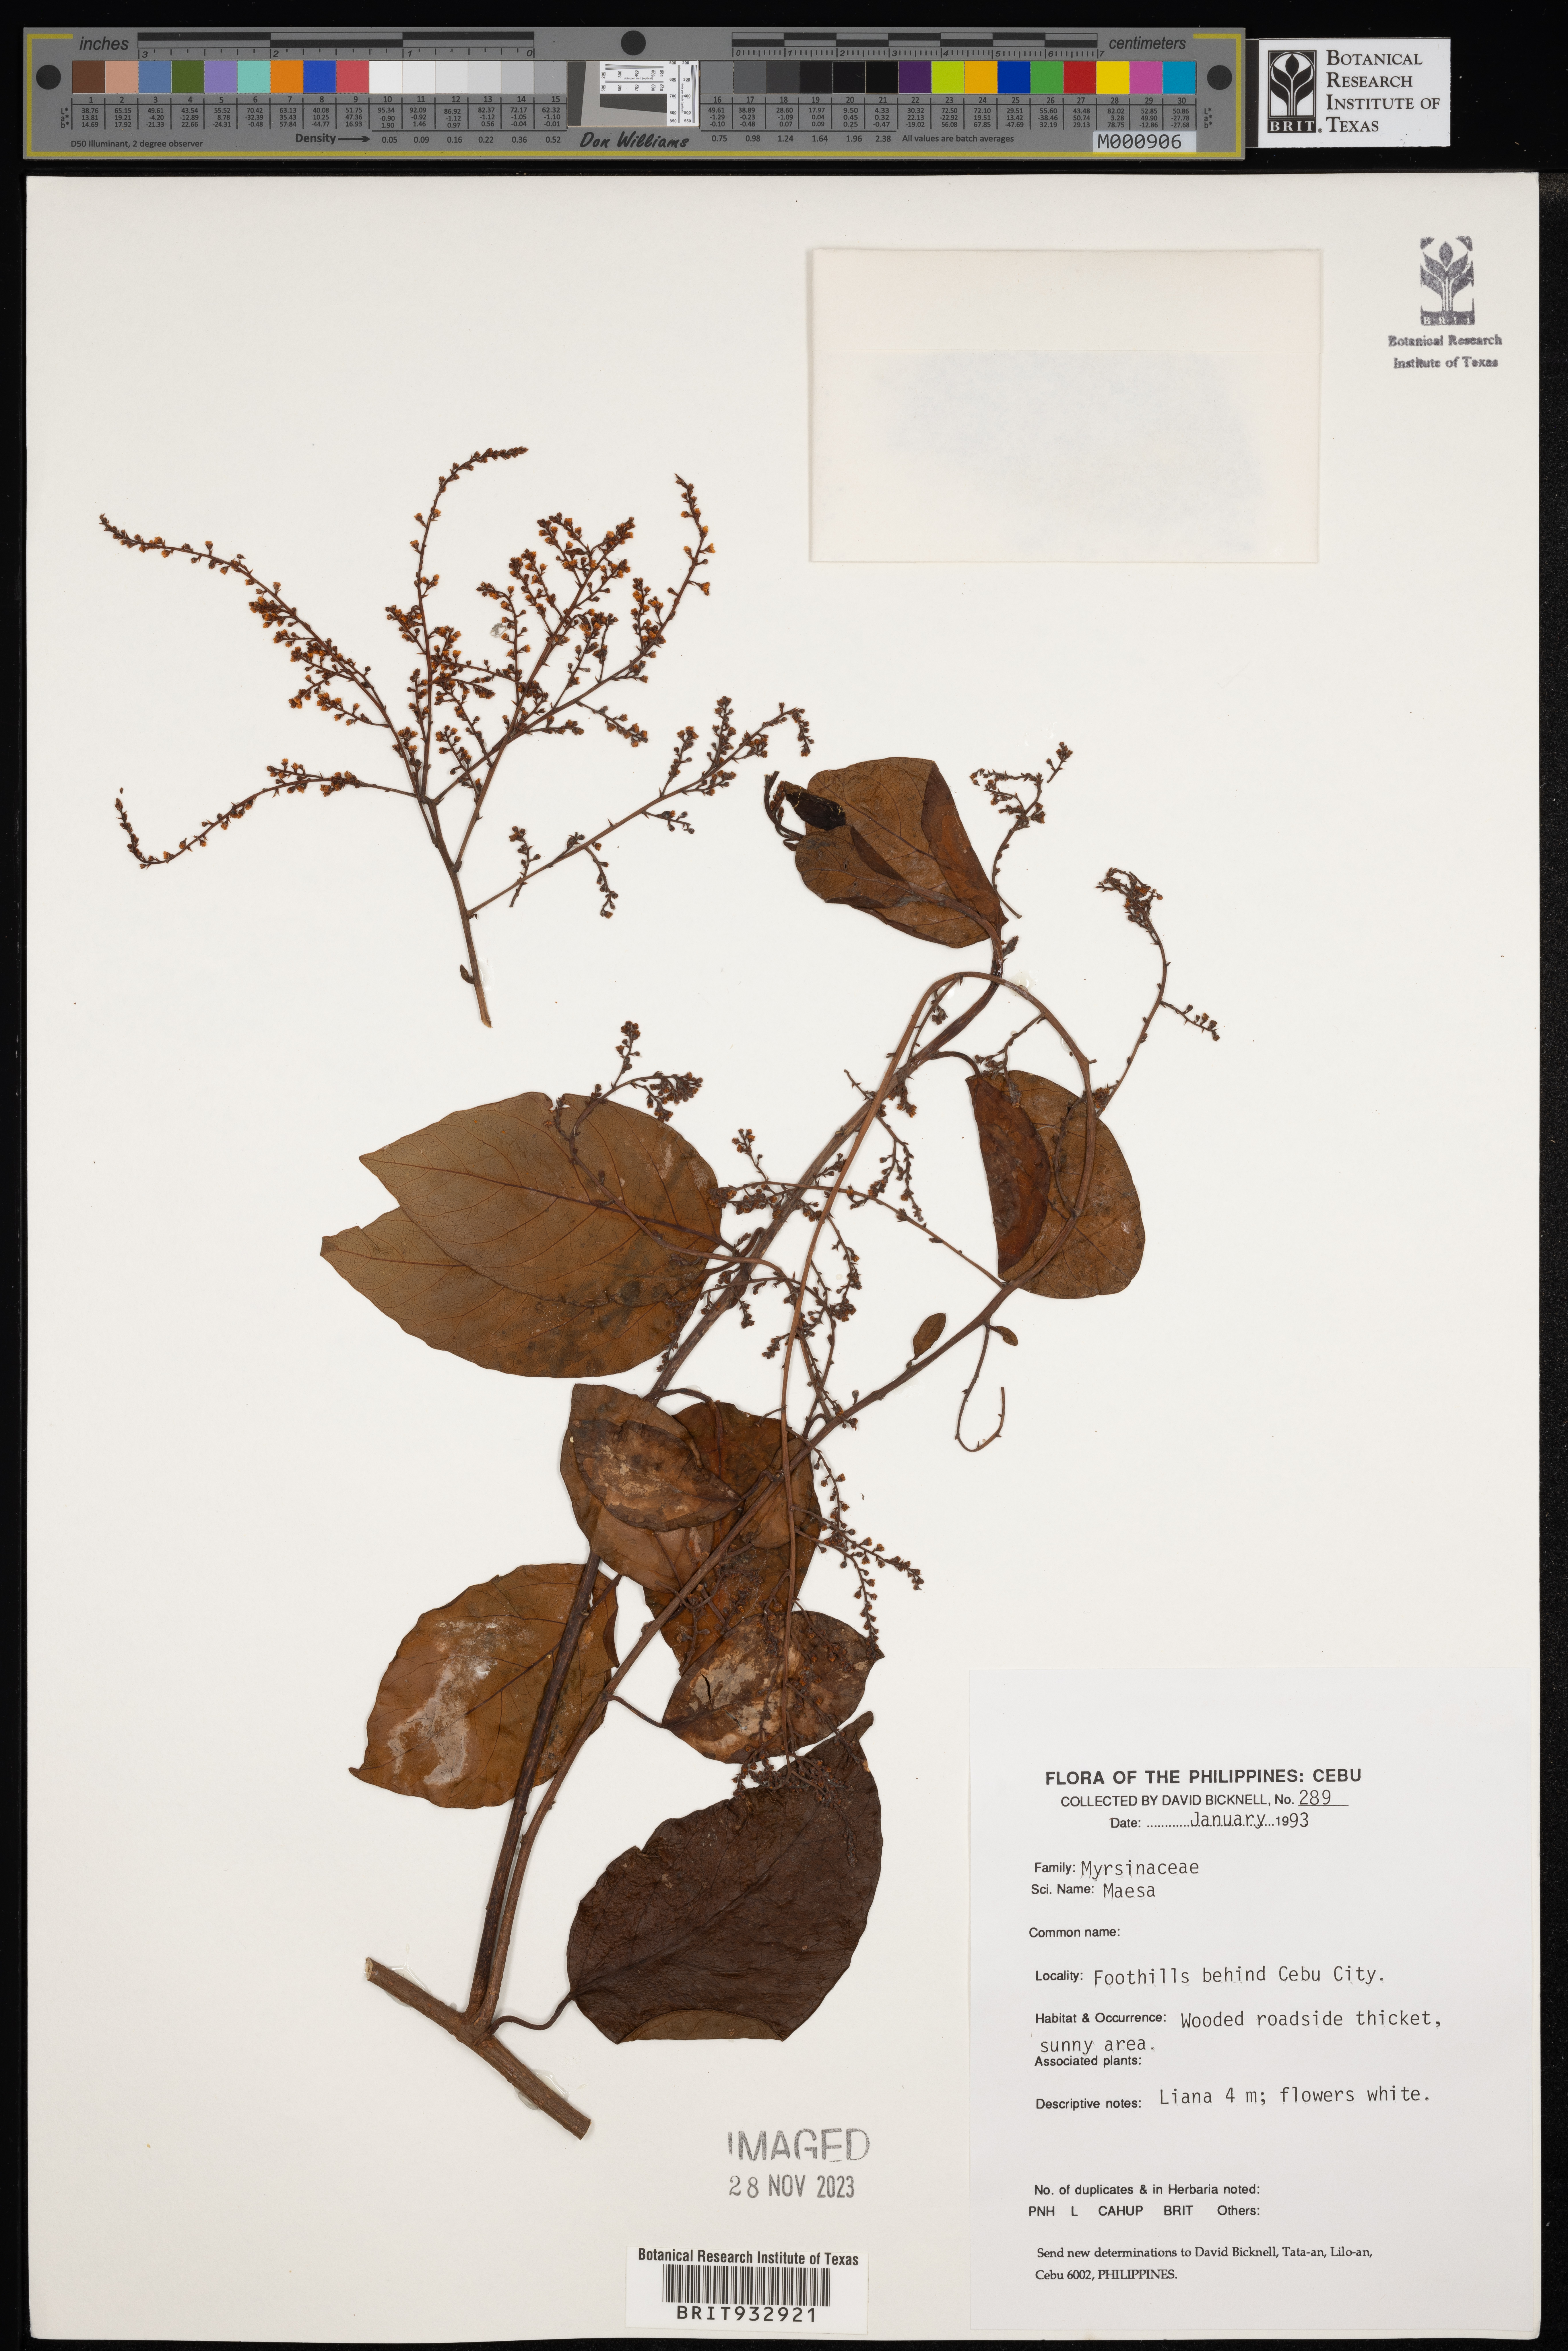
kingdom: Plantae
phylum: Tracheophyta
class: Magnoliopsida
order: Ericales
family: Primulaceae
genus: Maesa
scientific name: Maesa
